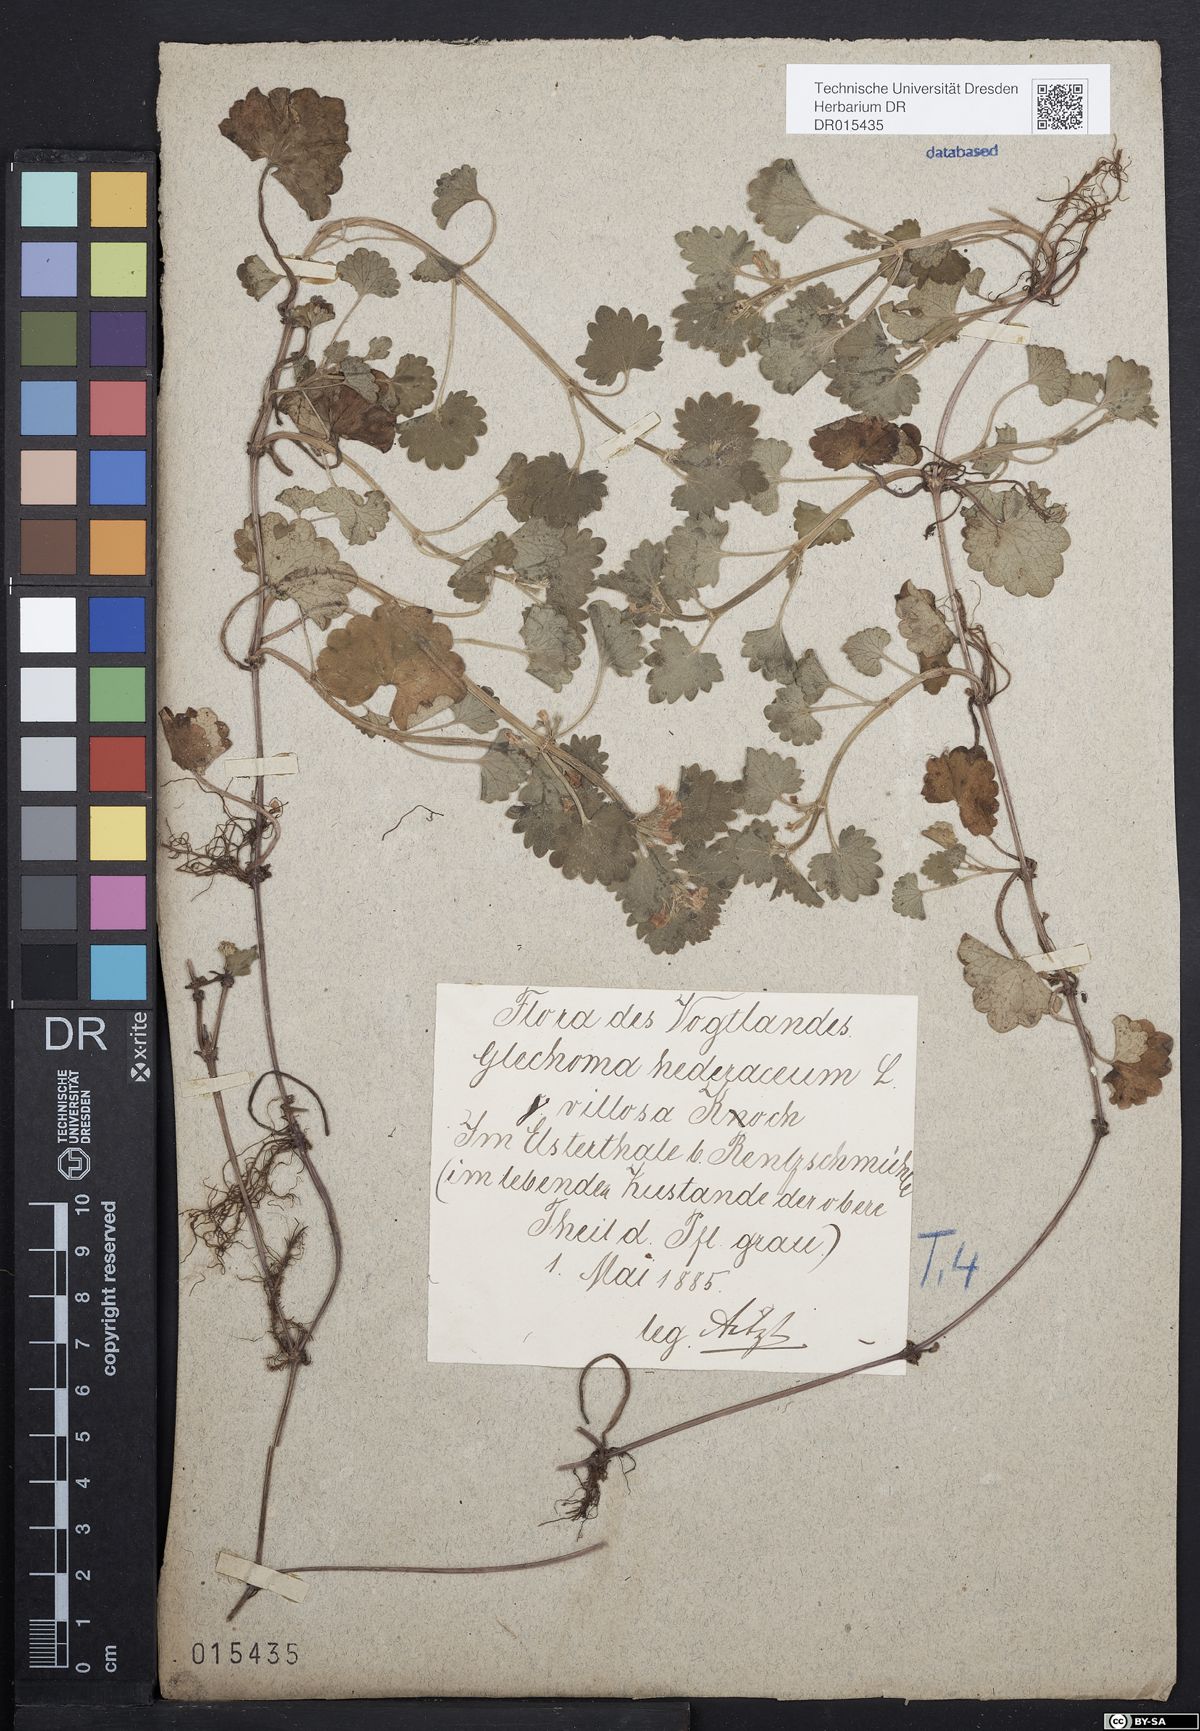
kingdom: Plantae
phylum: Tracheophyta
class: Magnoliopsida
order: Lamiales
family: Lamiaceae
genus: Glechoma
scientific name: Glechoma hederacea
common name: Ground ivy
